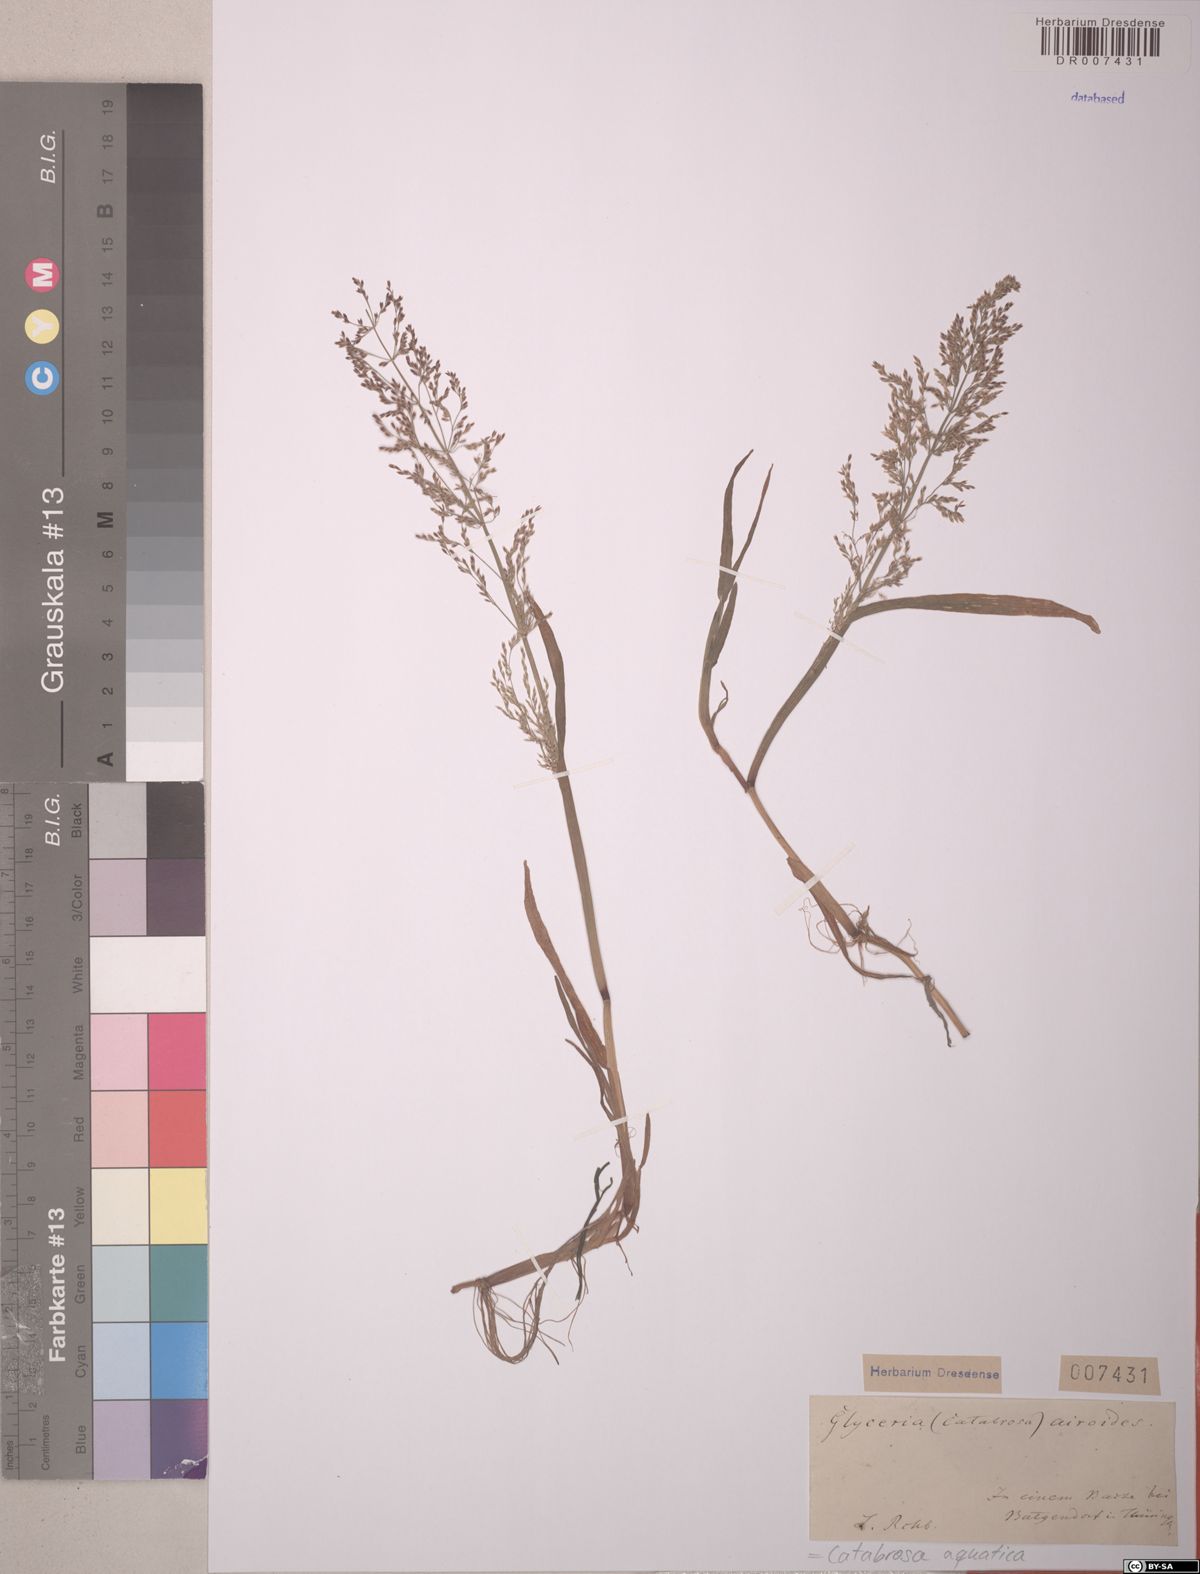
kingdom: Plantae
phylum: Tracheophyta
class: Liliopsida
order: Poales
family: Poaceae
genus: Catabrosa
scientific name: Catabrosa aquatica
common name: Whorl-grass
